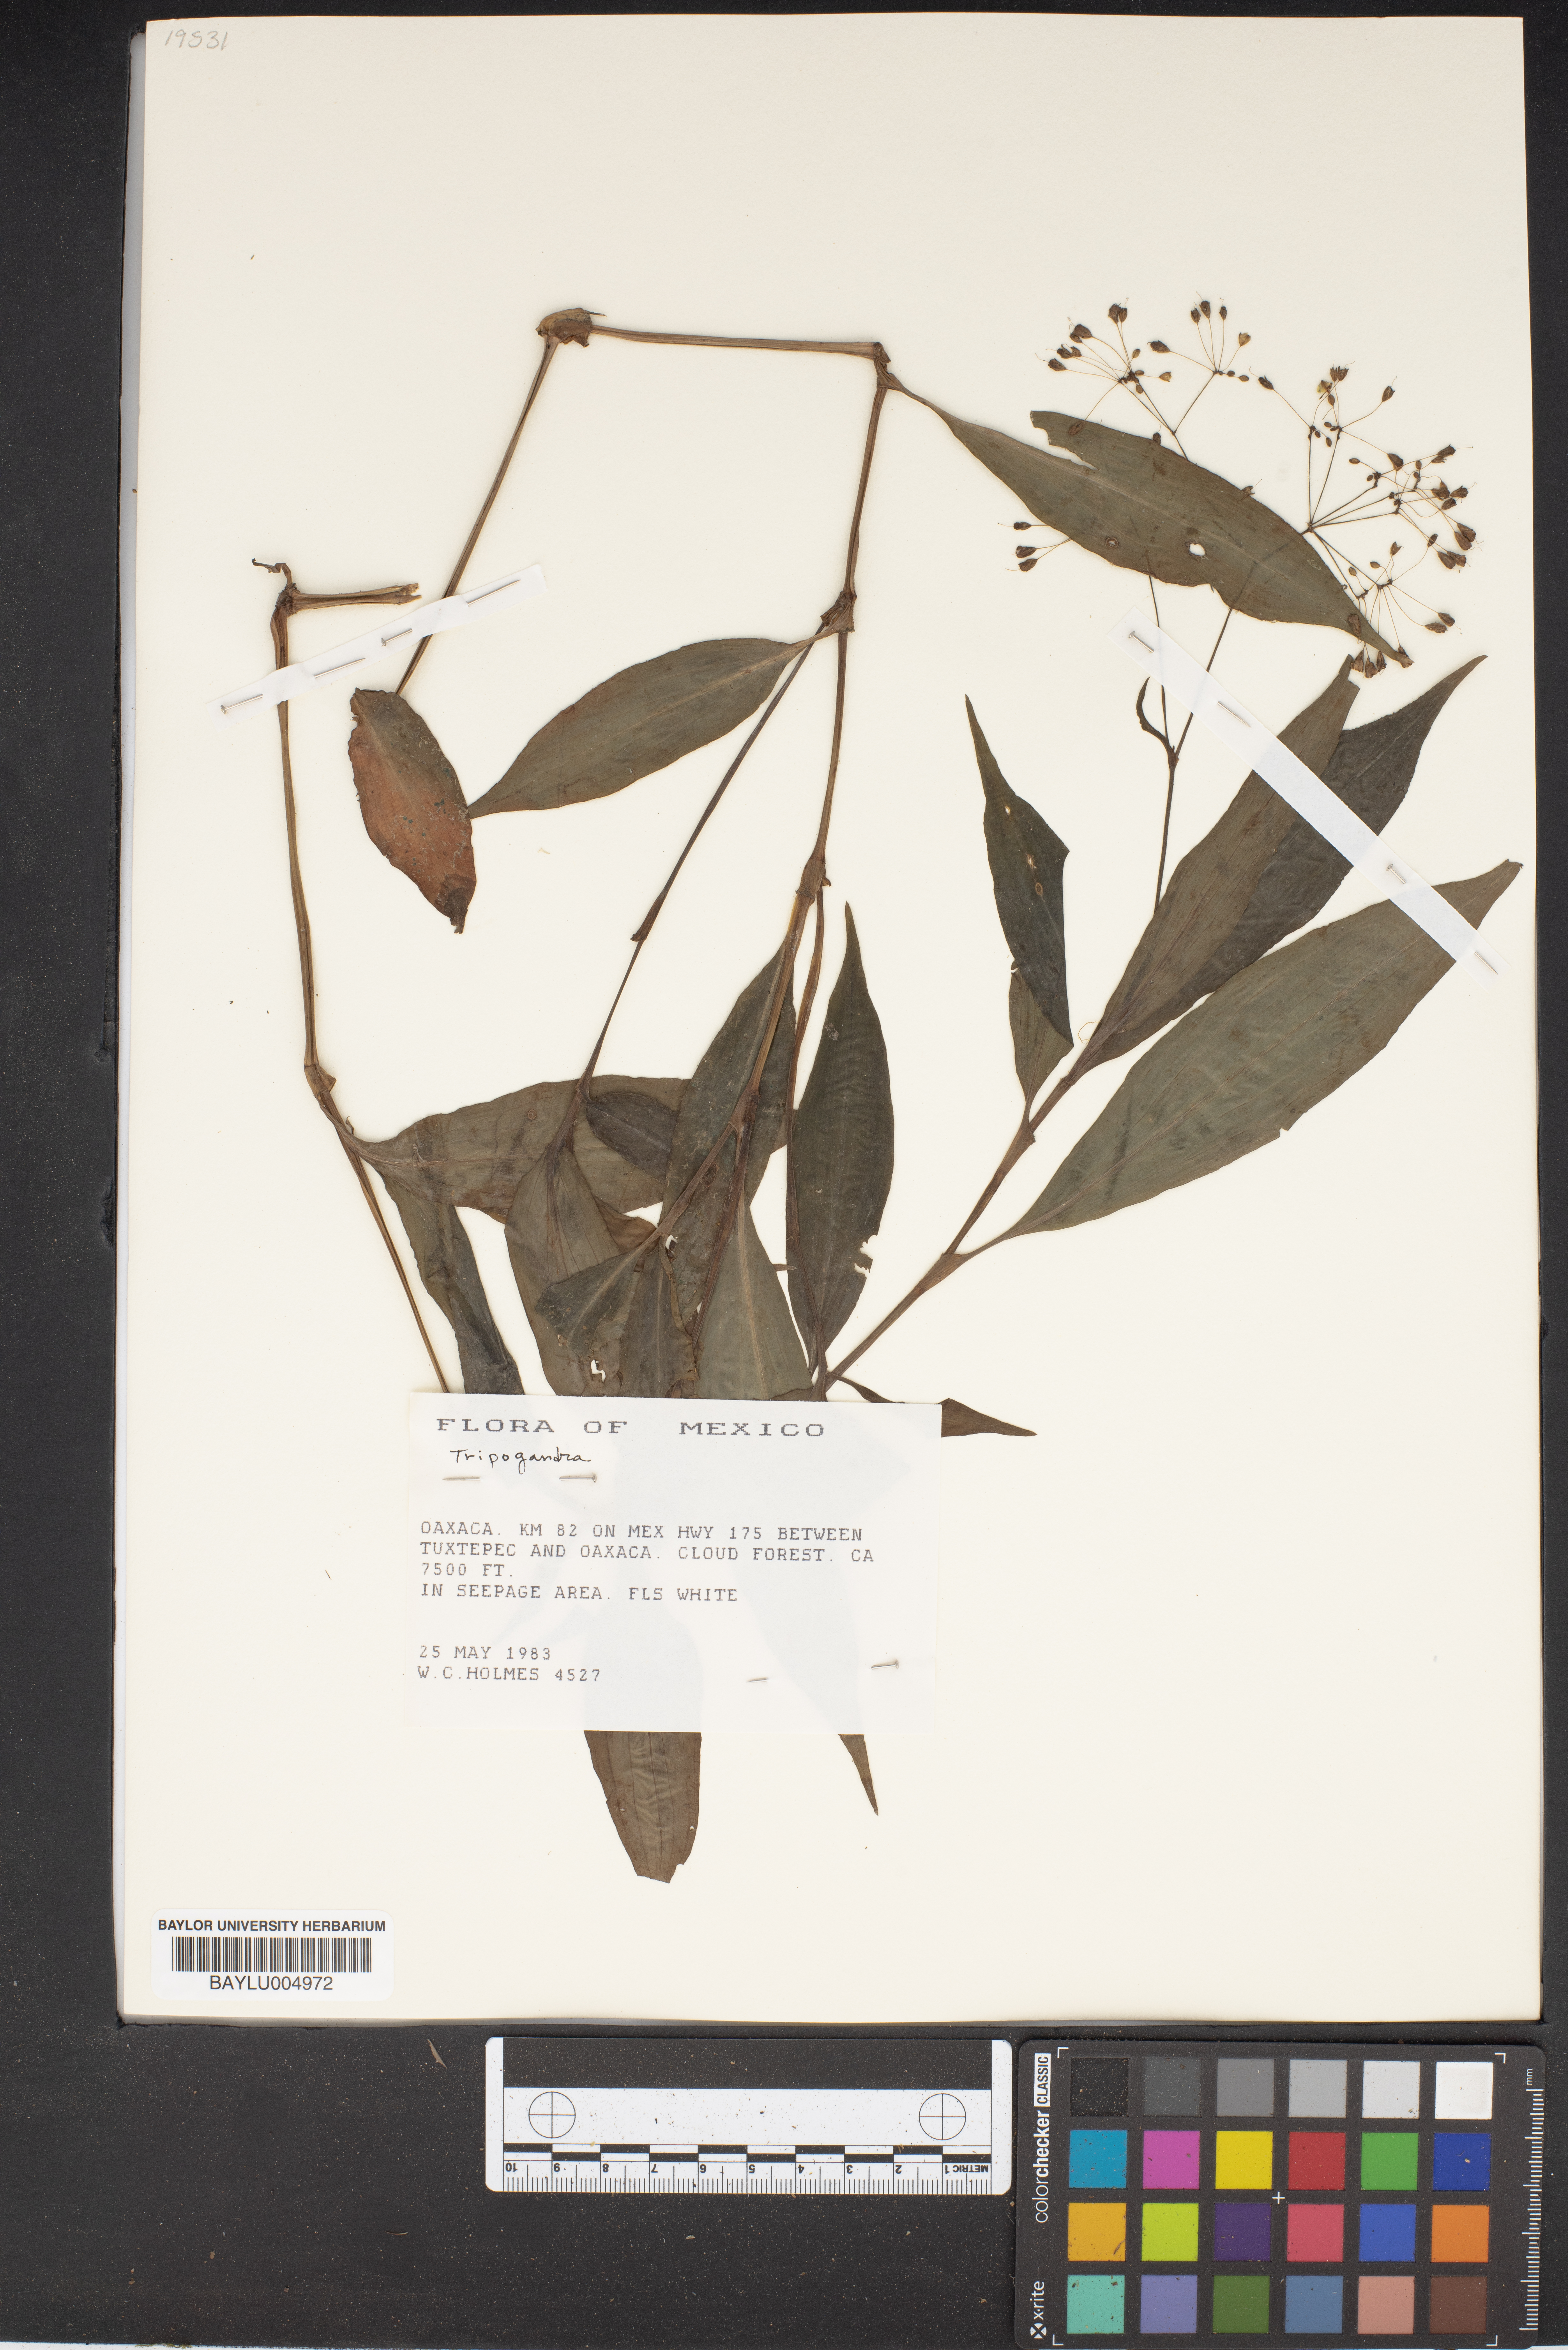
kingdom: Plantae
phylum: Tracheophyta
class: Liliopsida
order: Commelinales
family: Commelinaceae
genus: Callisia
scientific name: Callisia
